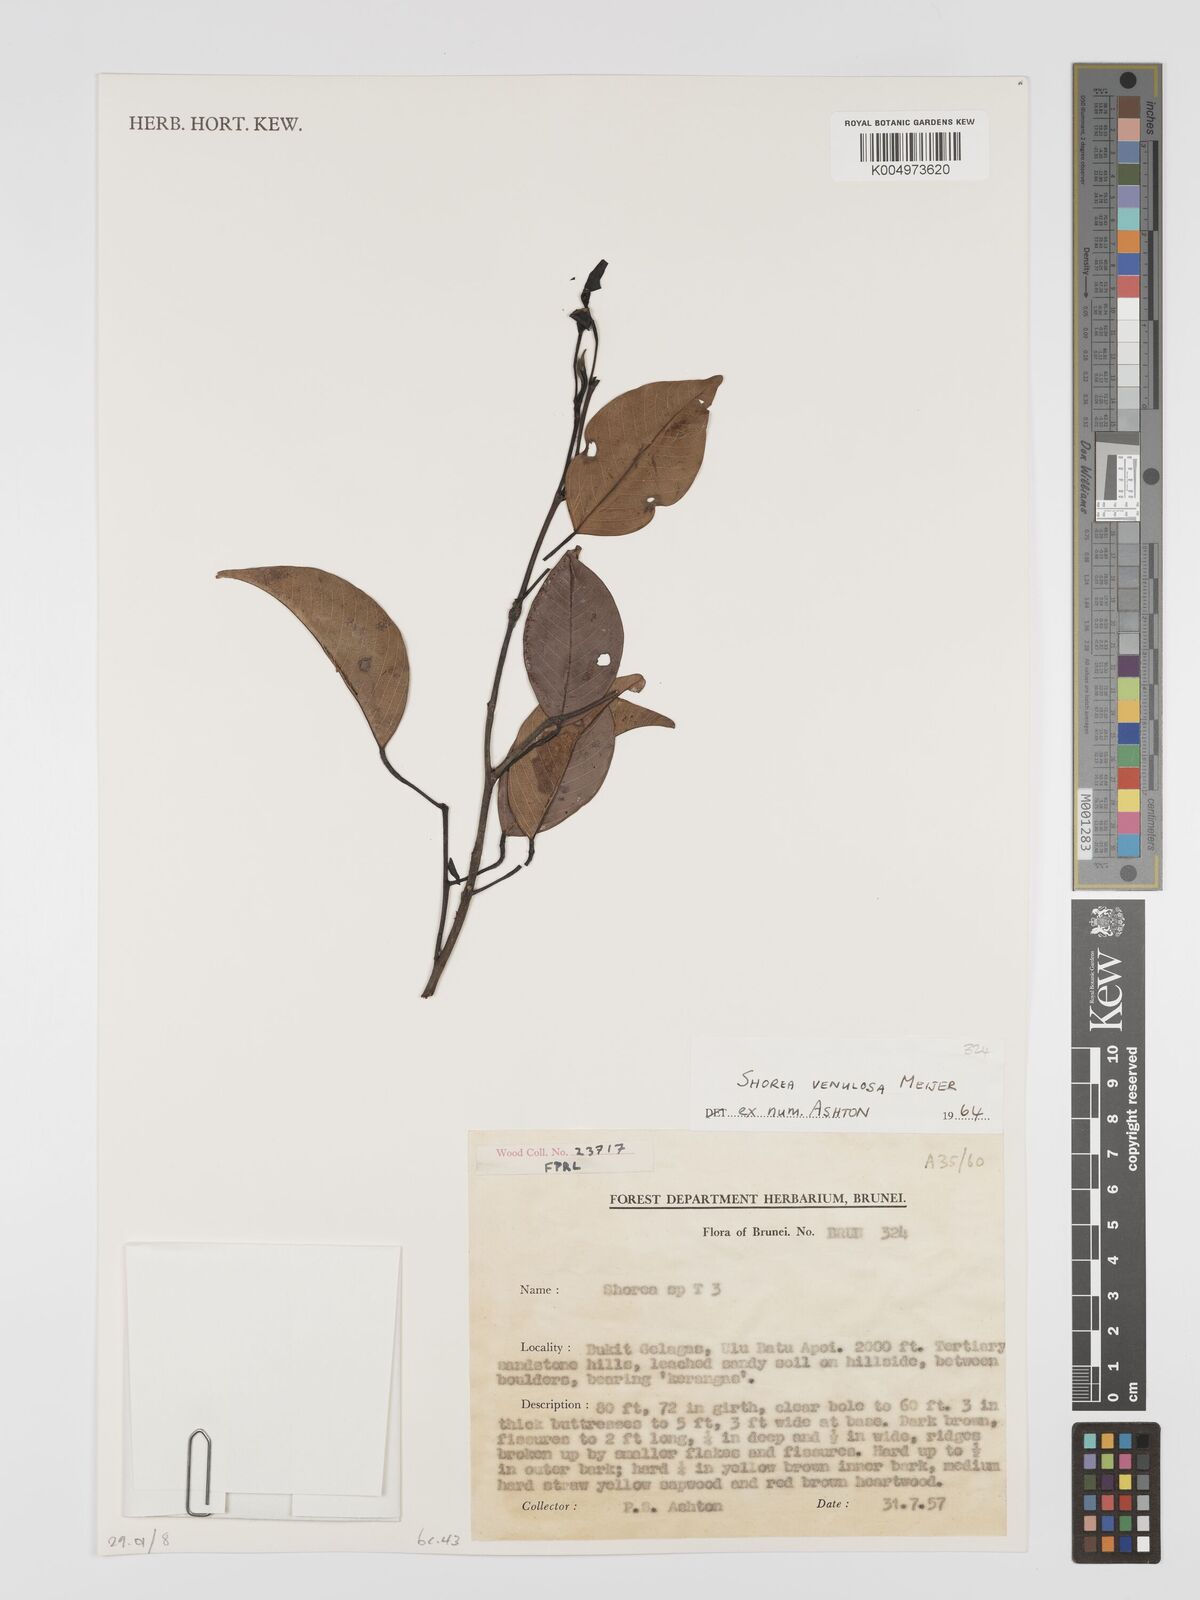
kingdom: Plantae
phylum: Tracheophyta
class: Magnoliopsida
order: Malvales
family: Dipterocarpaceae
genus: Shorea
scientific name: Shorea venulosa
